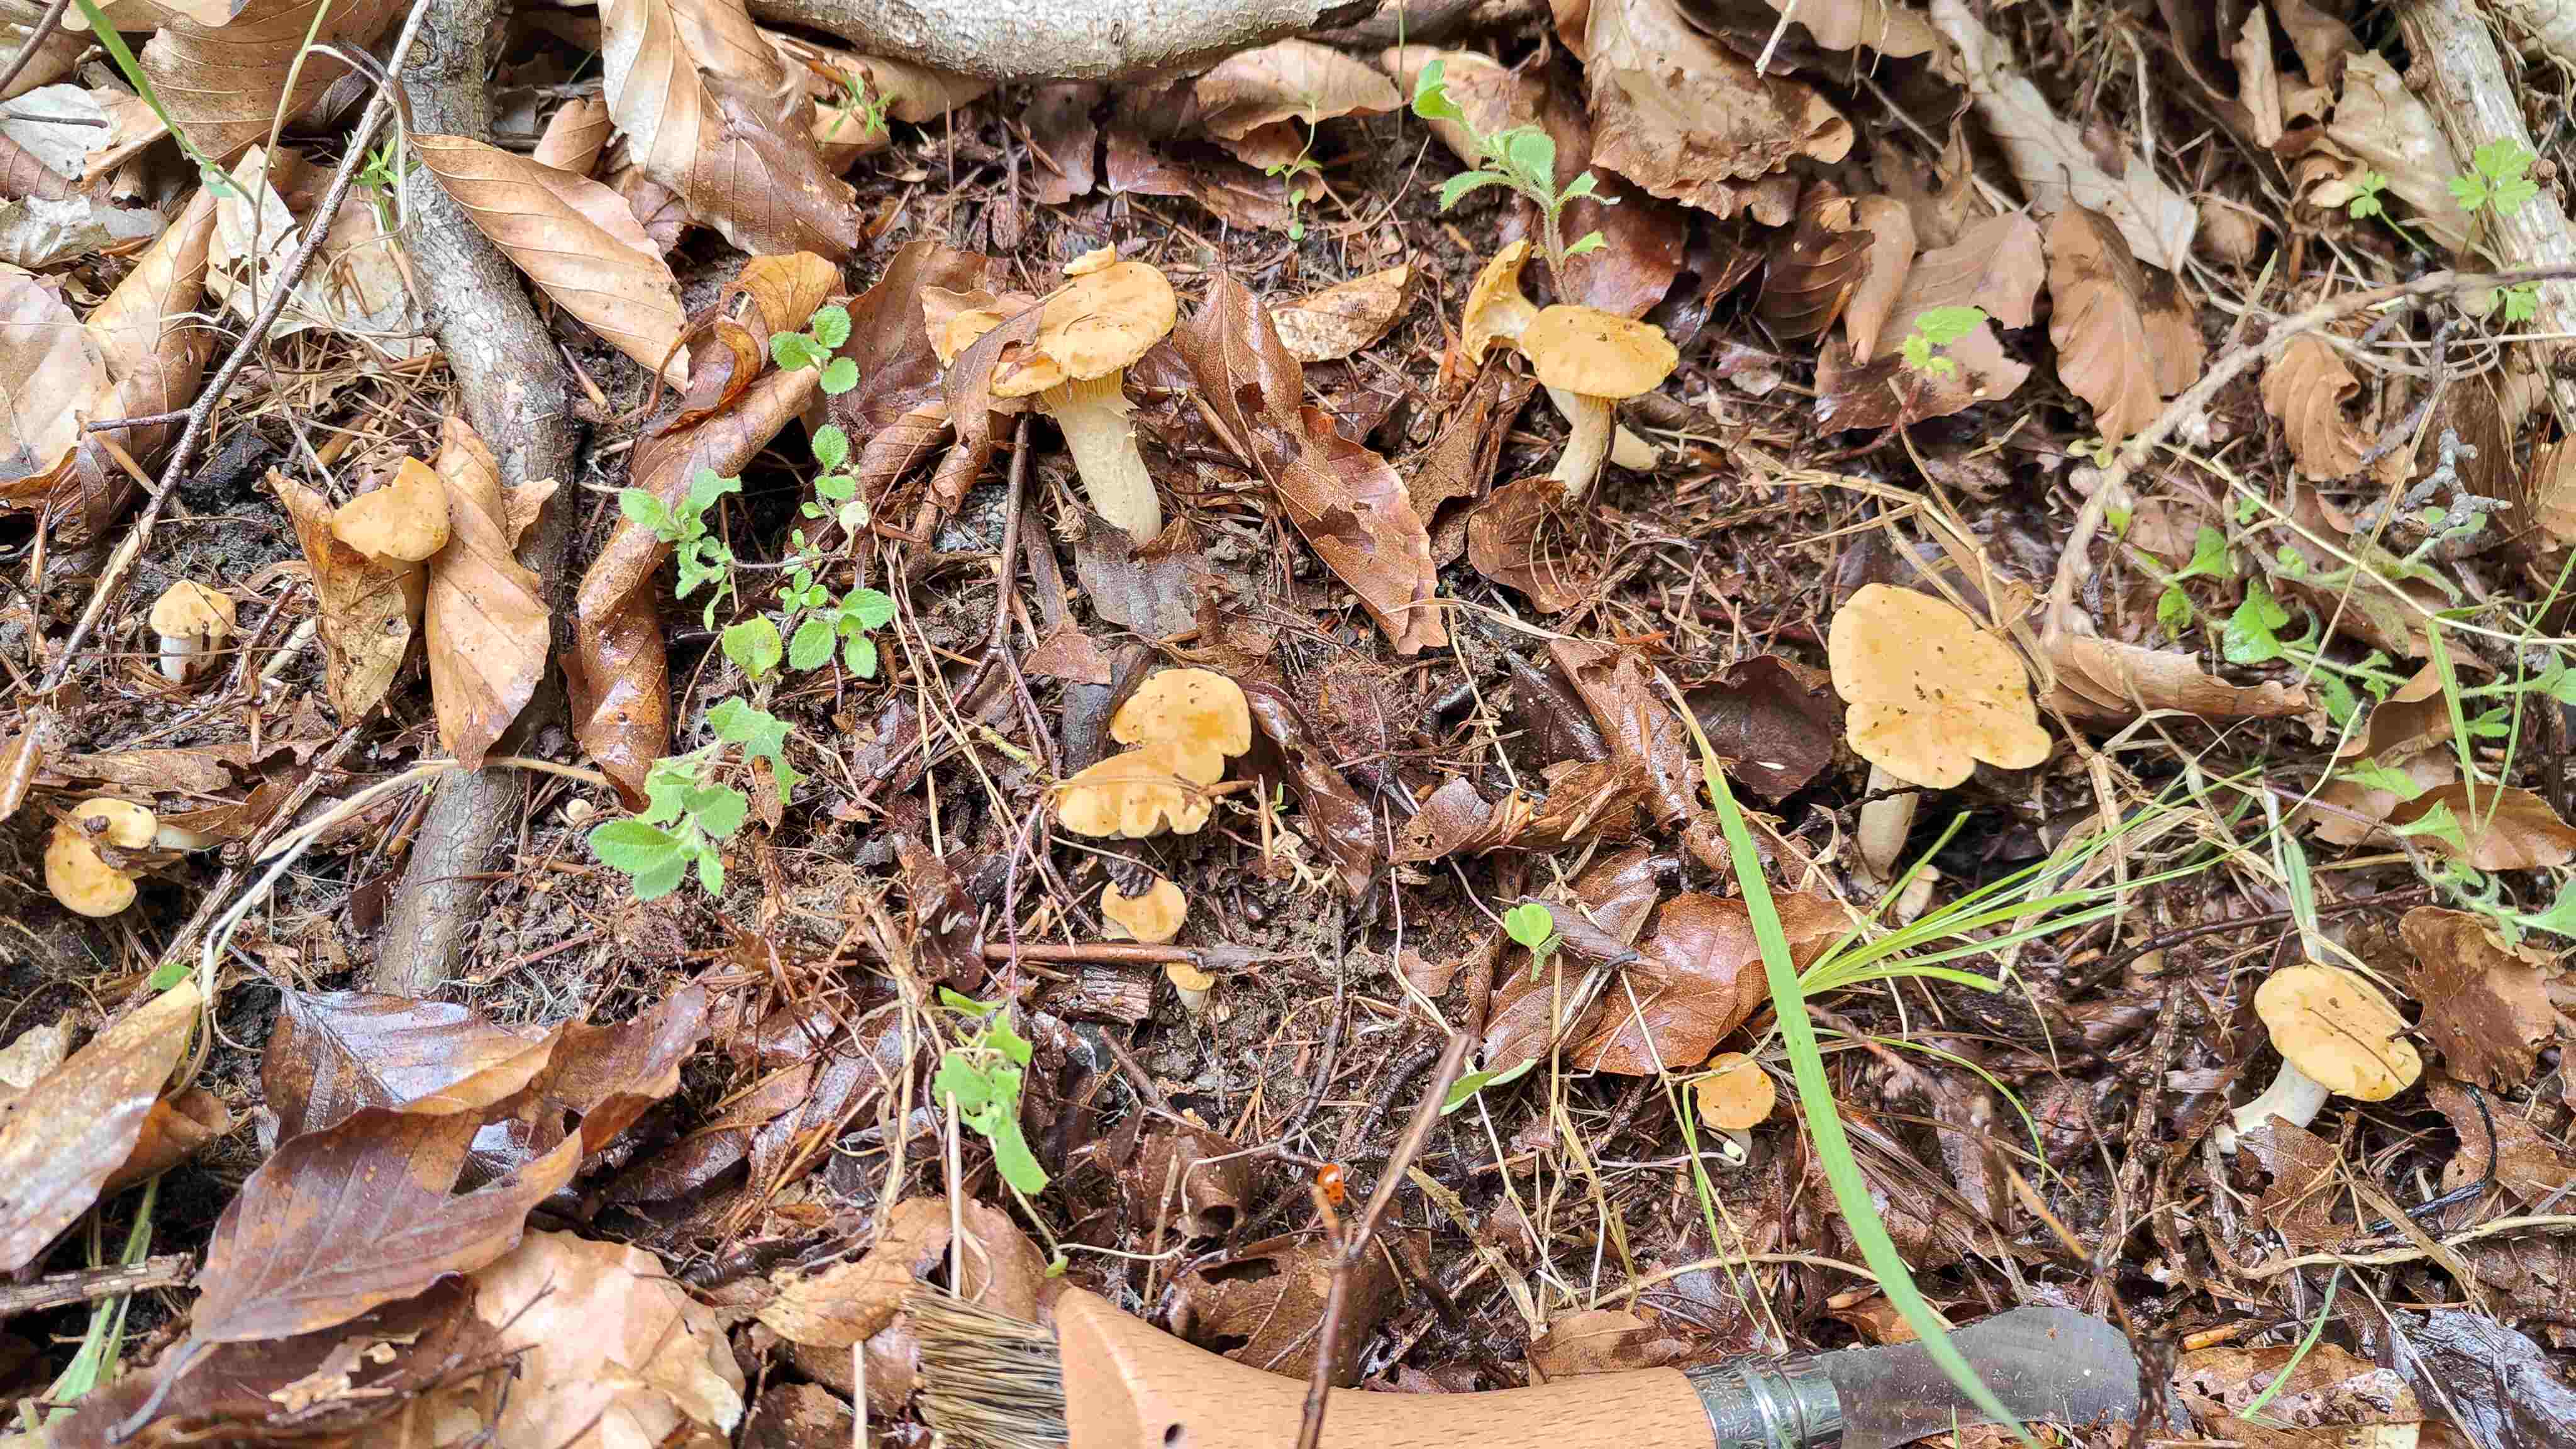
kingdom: Fungi
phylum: Basidiomycota
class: Agaricomycetes
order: Cantharellales
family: Hydnaceae
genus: Cantharellus
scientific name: Cantharellus cibarius
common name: almindelig kantarel
